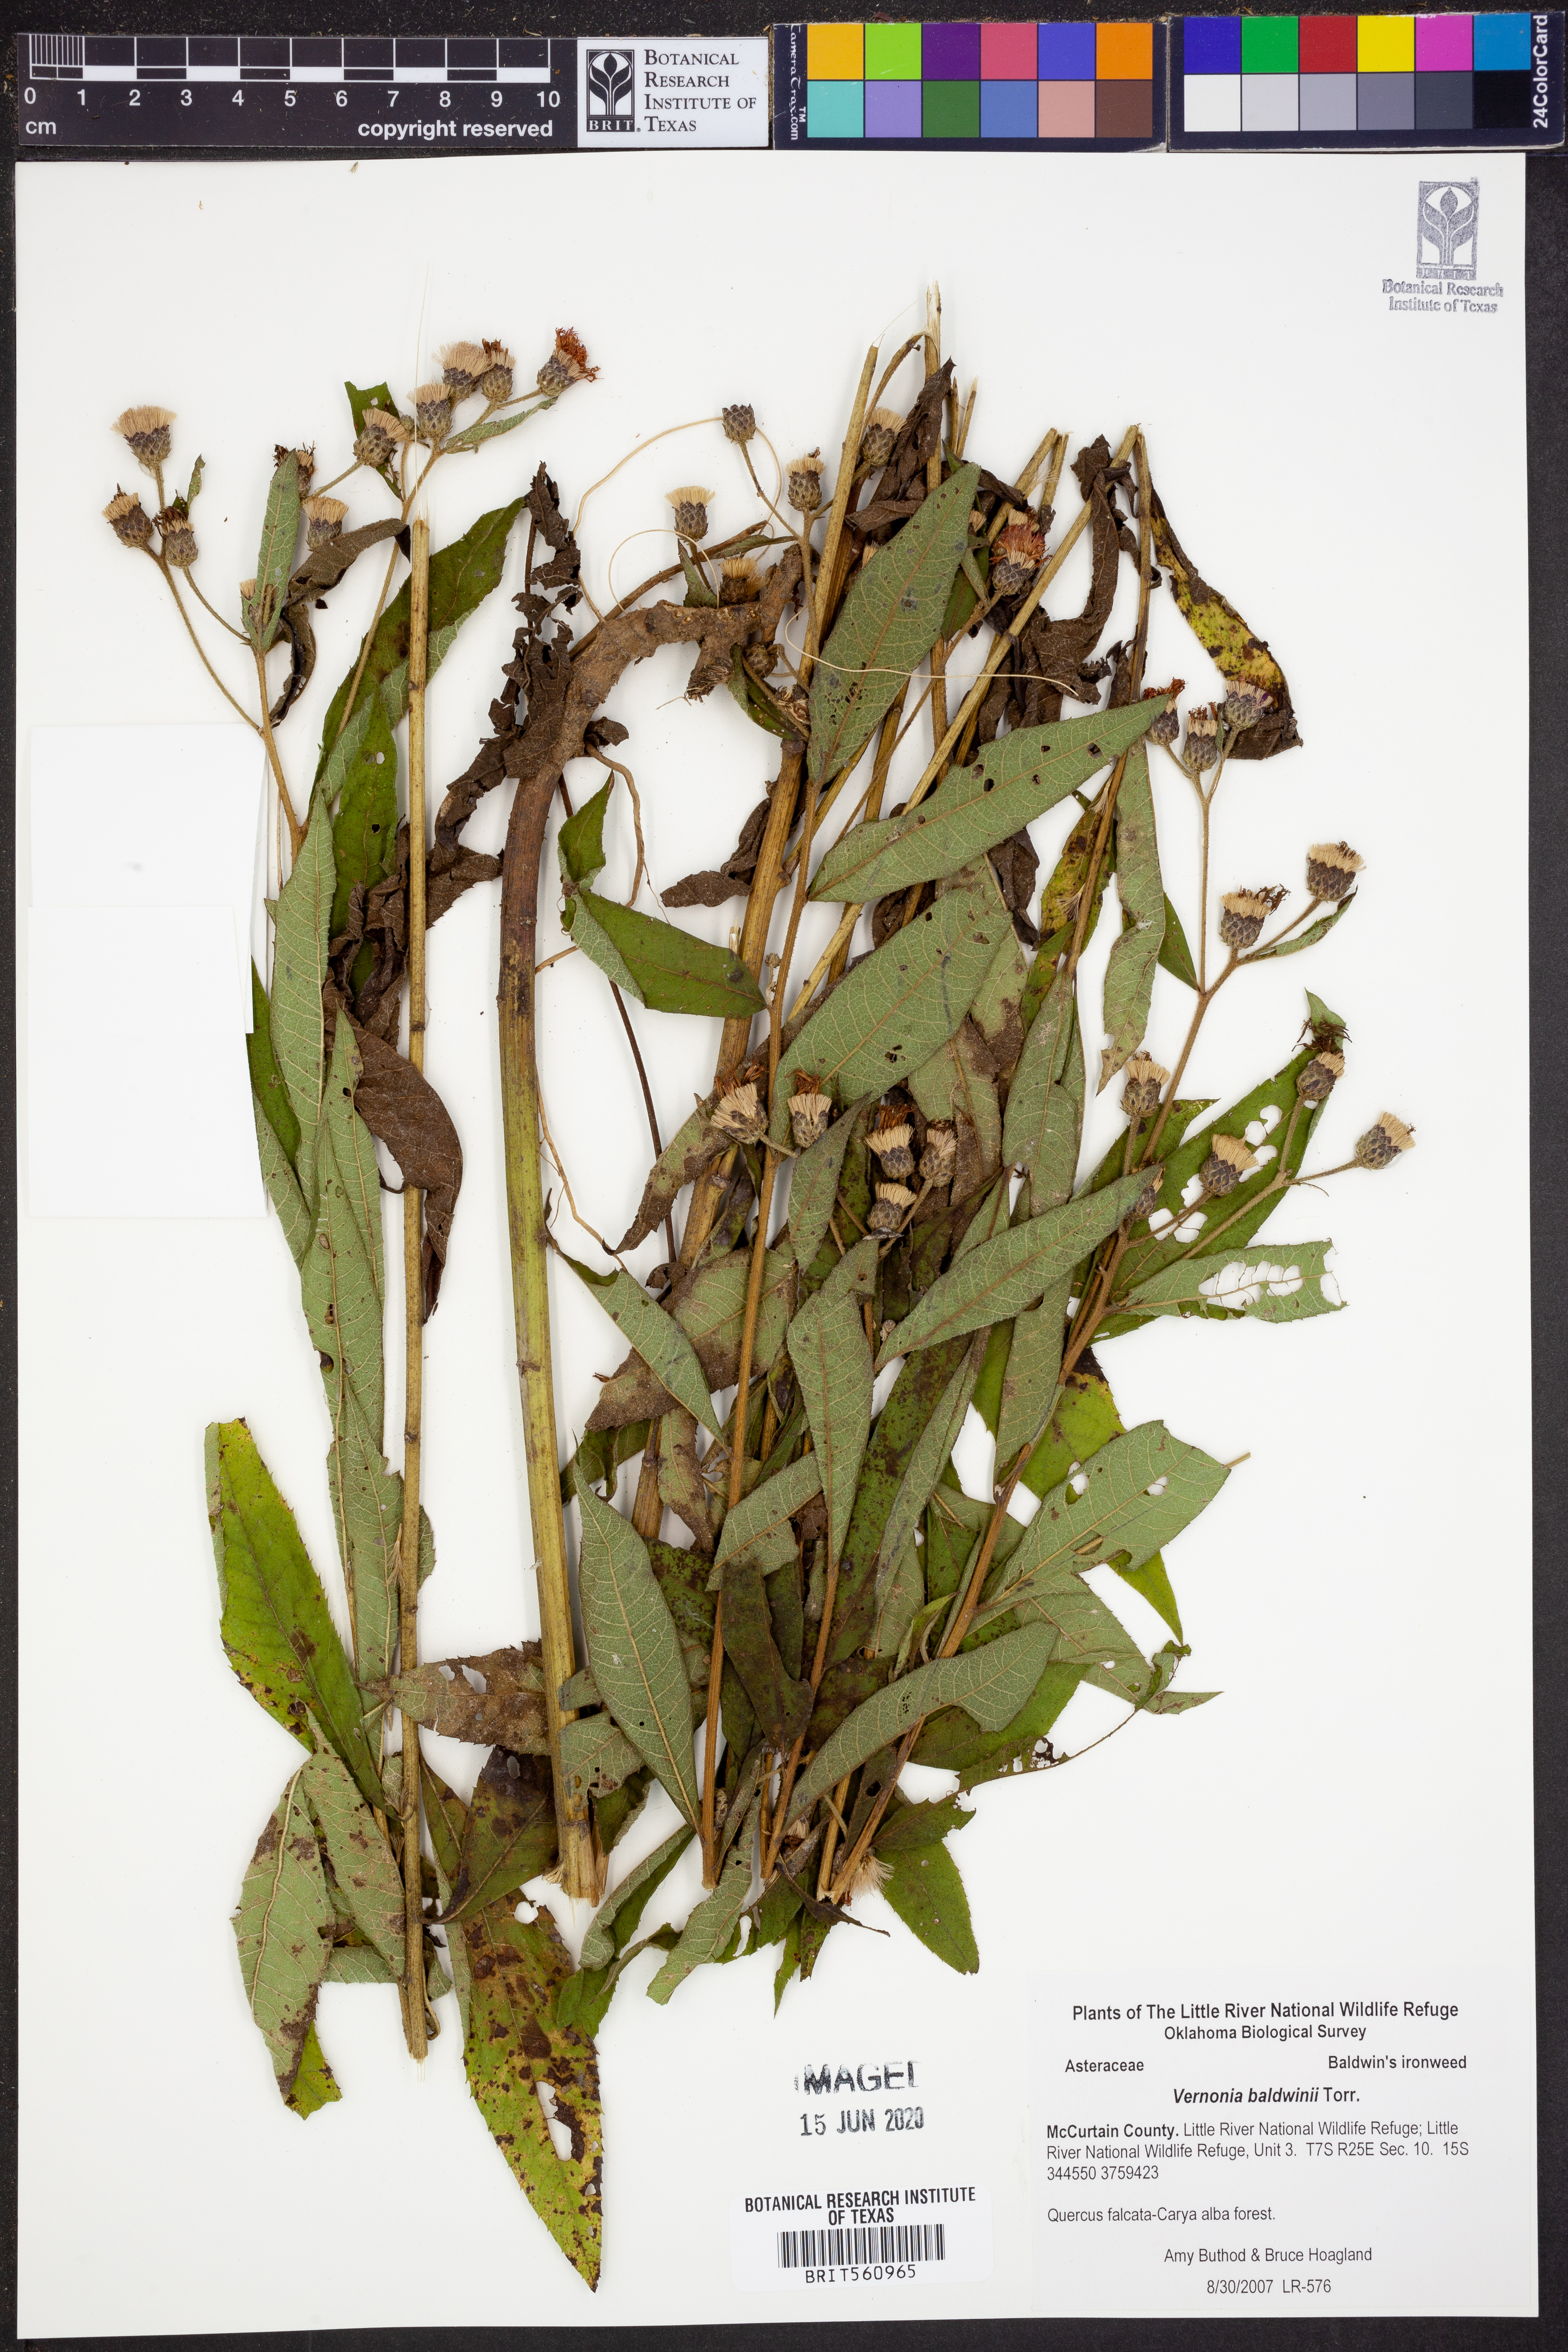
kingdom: Plantae
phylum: Tracheophyta
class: Magnoliopsida
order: Asterales
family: Asteraceae
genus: Vernonia
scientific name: Vernonia baldwinii
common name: Western ironweed
